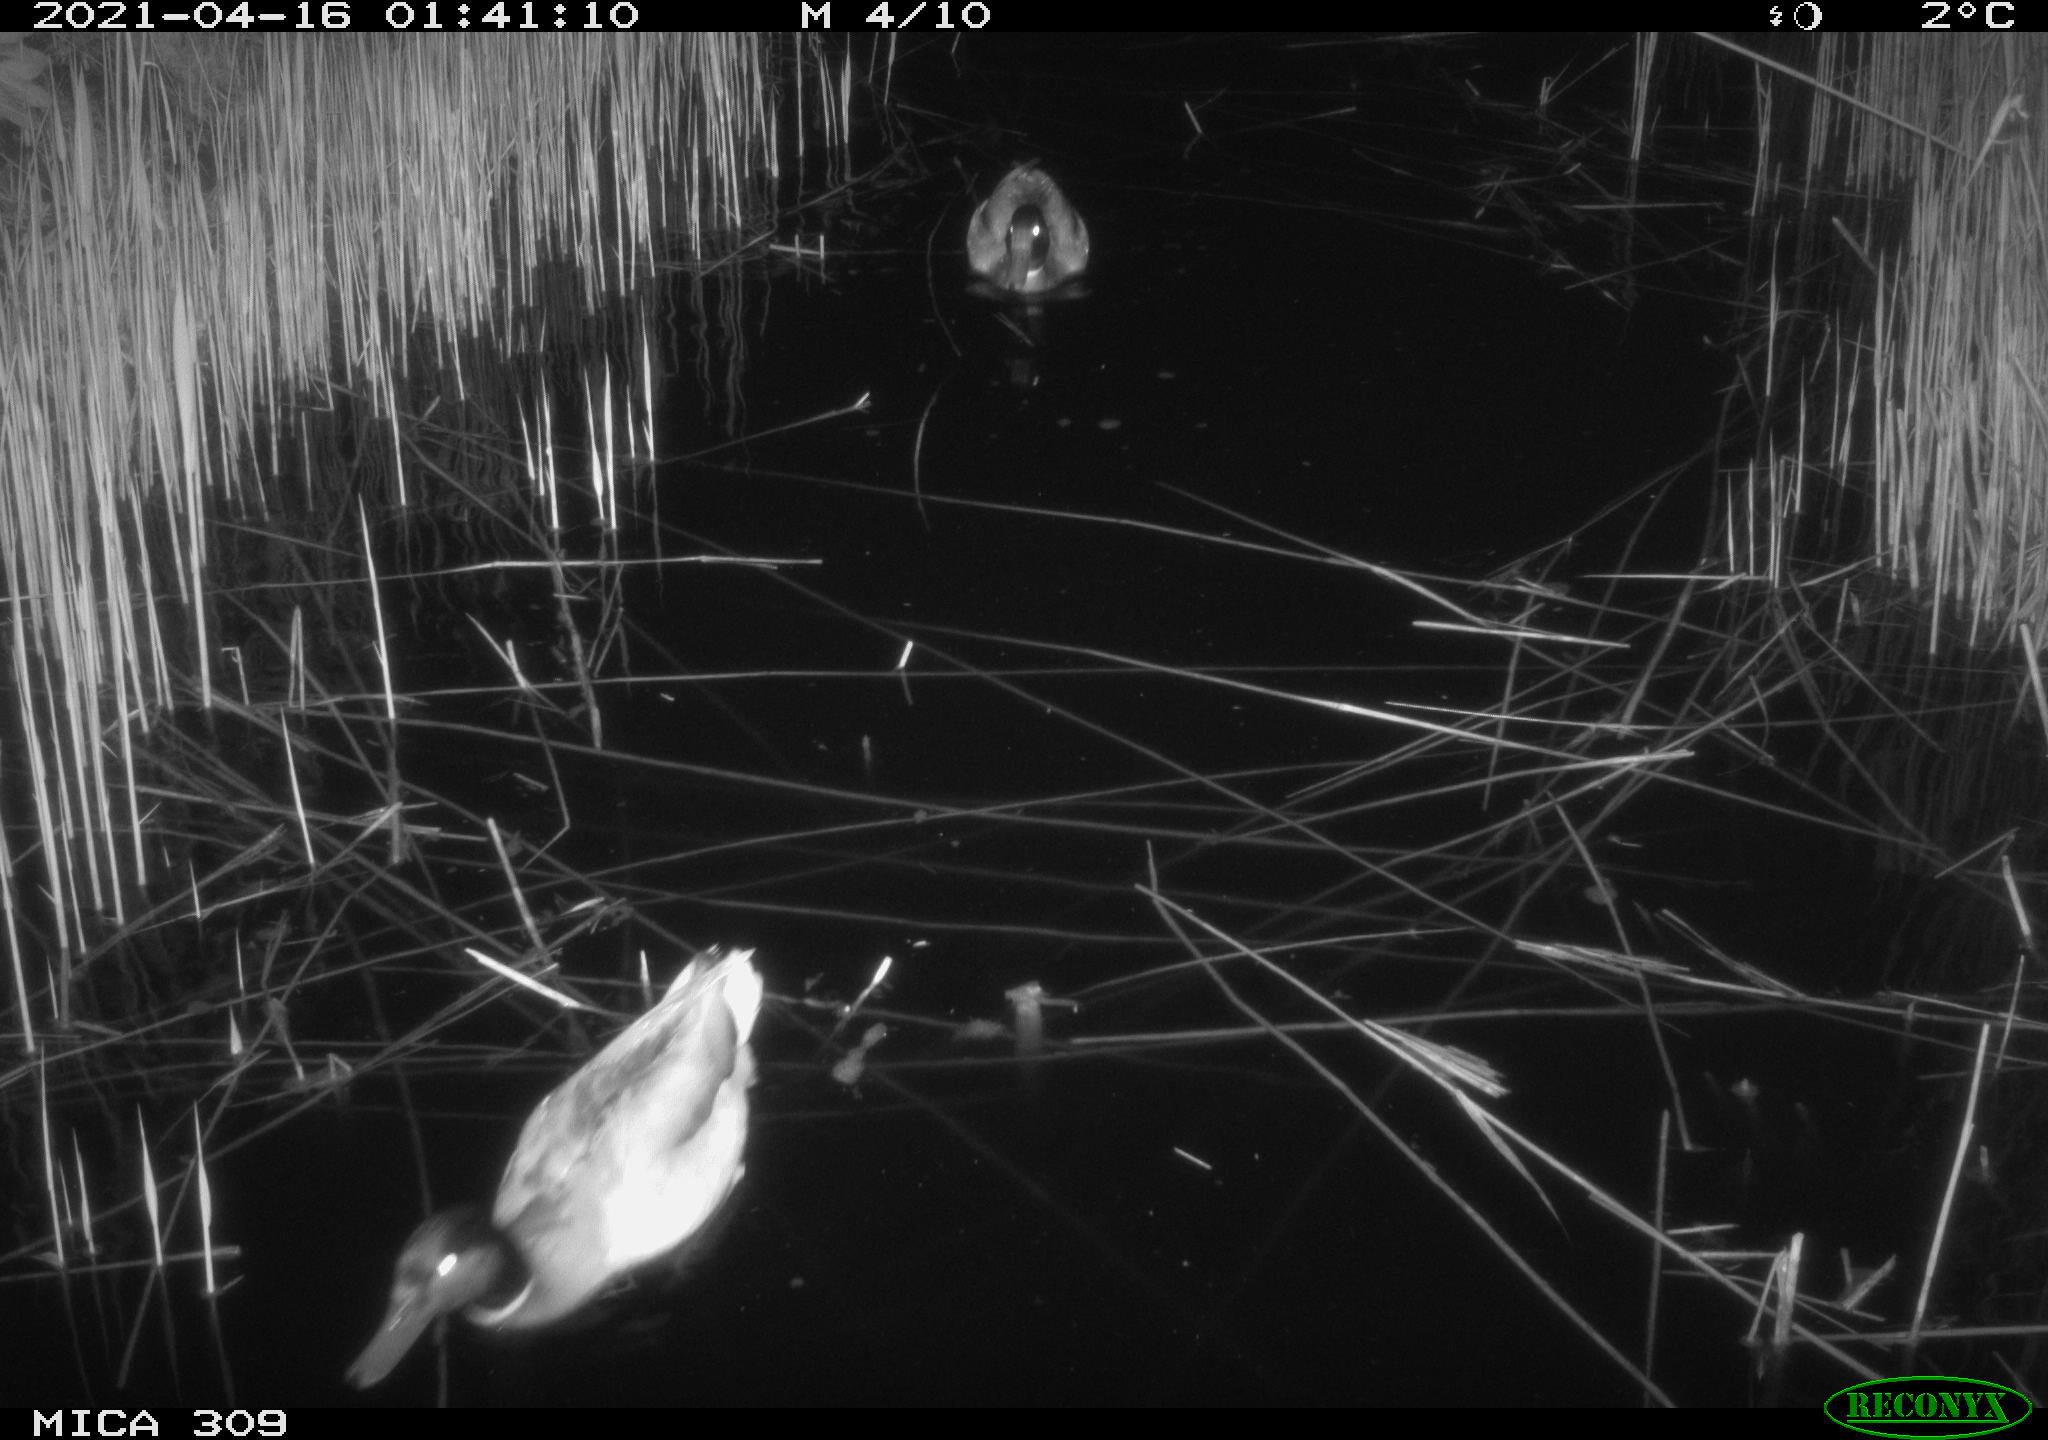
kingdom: Animalia
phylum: Chordata
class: Aves
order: Anseriformes
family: Anatidae
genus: Anas
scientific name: Anas platyrhynchos
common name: Mallard
